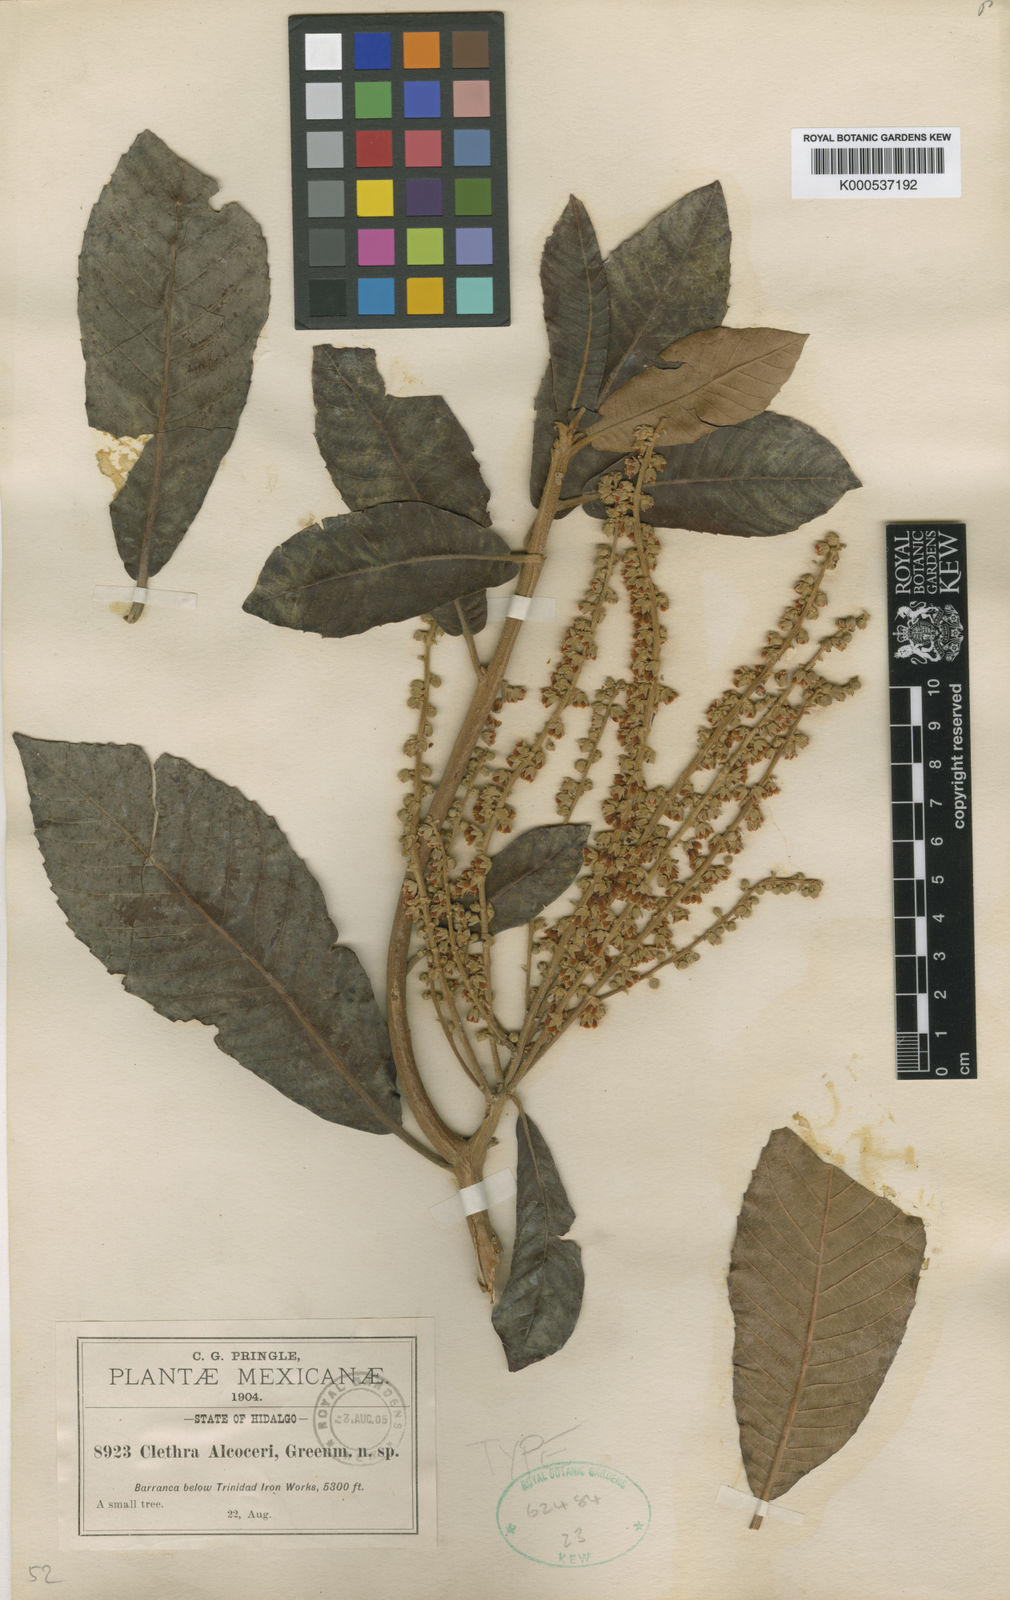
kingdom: Plantae
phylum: Tracheophyta
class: Magnoliopsida
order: Ericales
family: Clethraceae
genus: Clethra
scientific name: Clethra alcoceri
